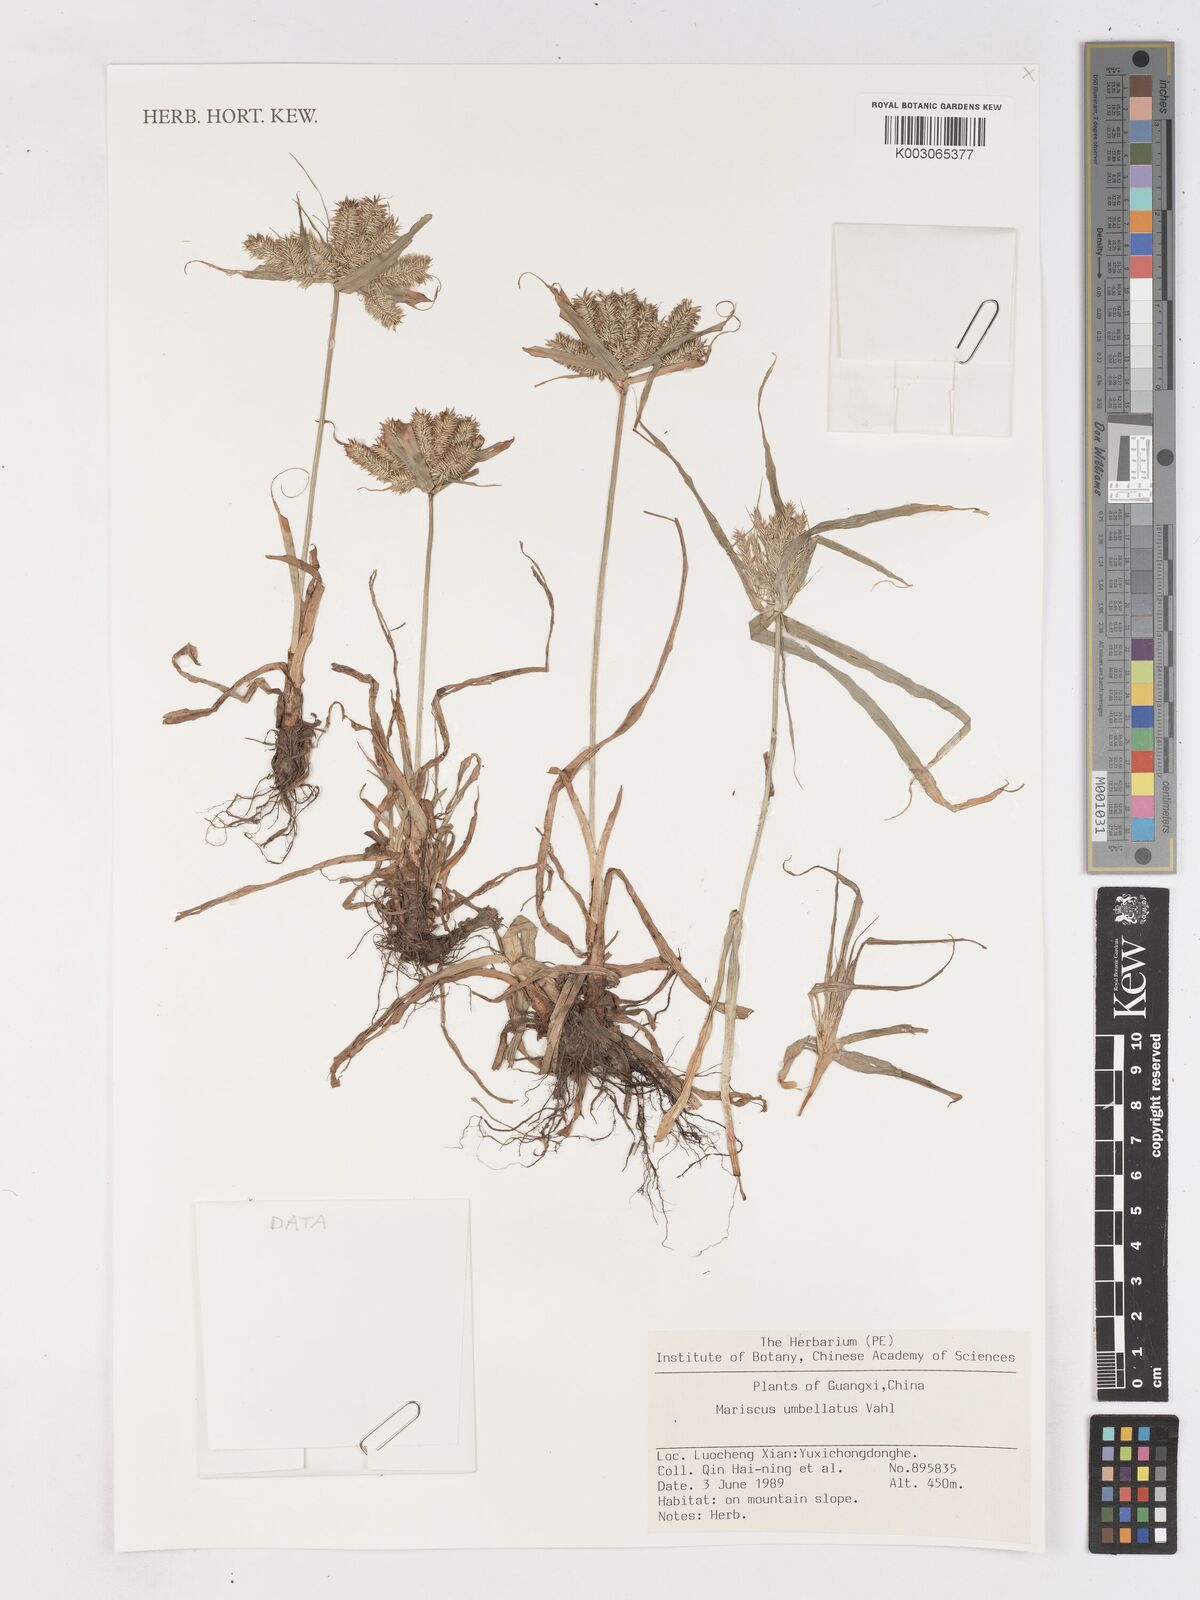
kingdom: Plantae
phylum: Tracheophyta
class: Liliopsida
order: Poales
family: Cyperaceae
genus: Cyperus
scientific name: Cyperus
